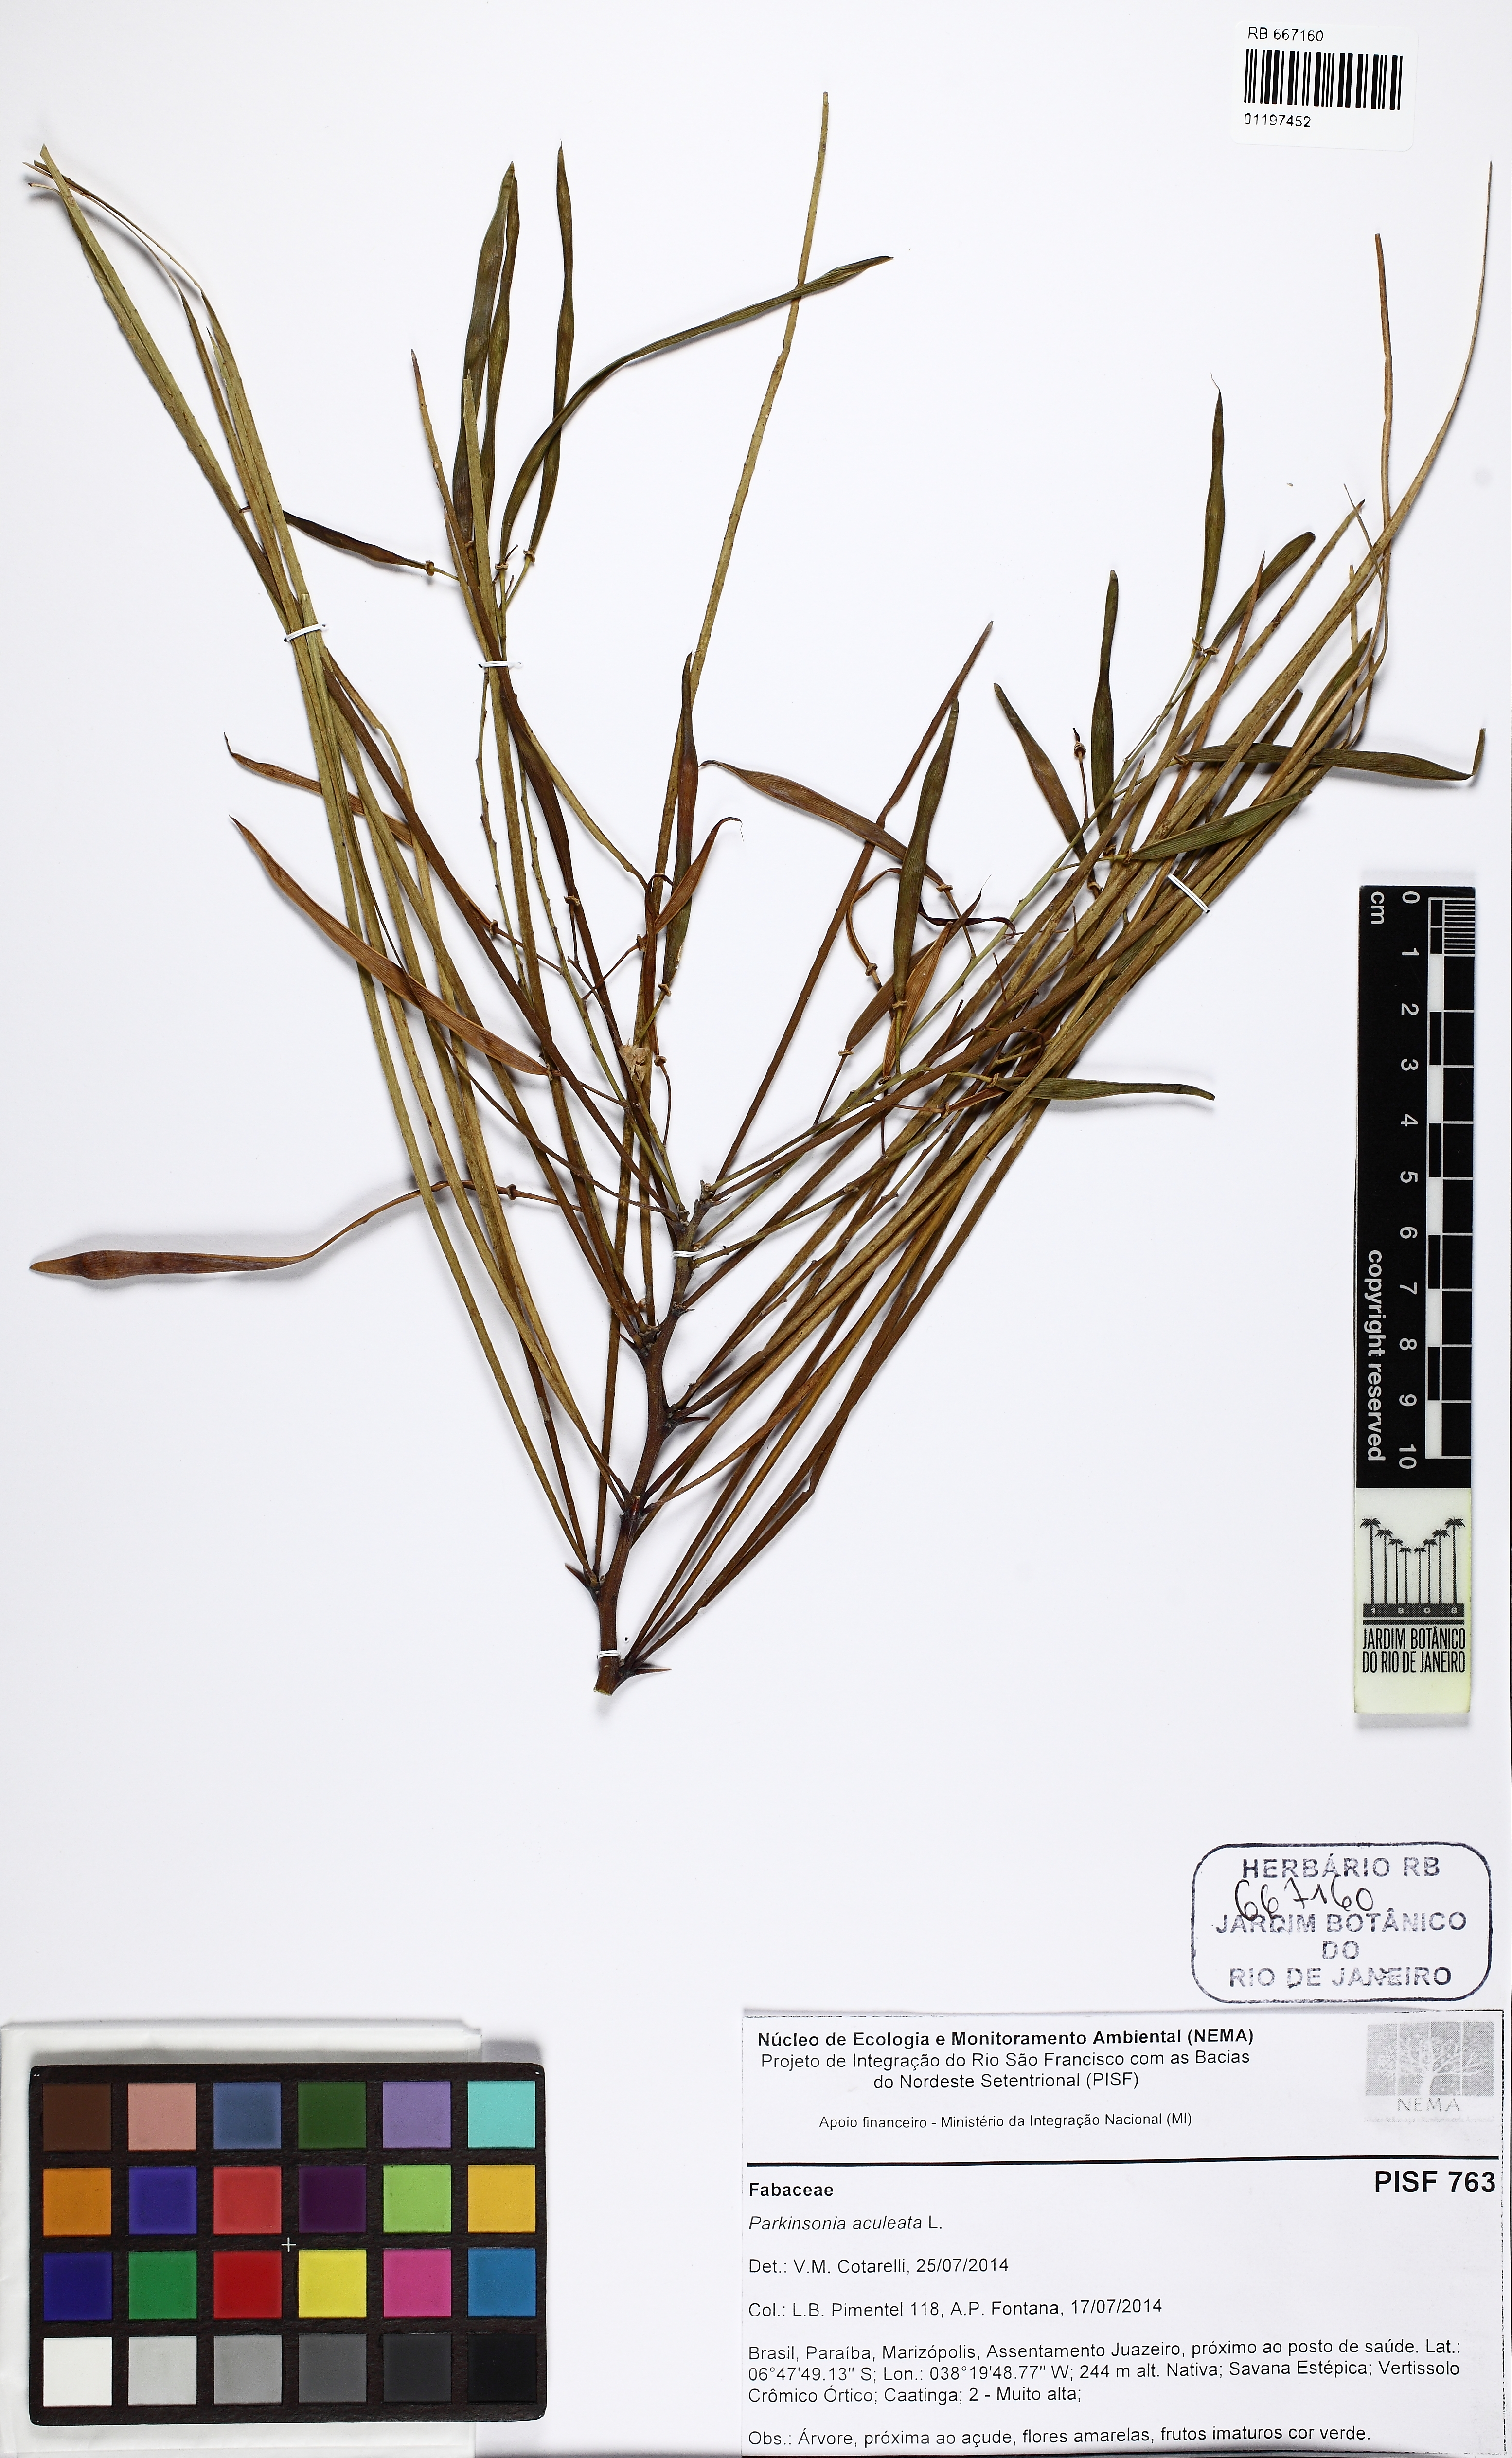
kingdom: Plantae
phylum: Tracheophyta
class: Magnoliopsida
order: Fabales
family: Fabaceae
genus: Parkinsonia
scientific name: Parkinsonia aculeata
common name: Jerusalem thorn
